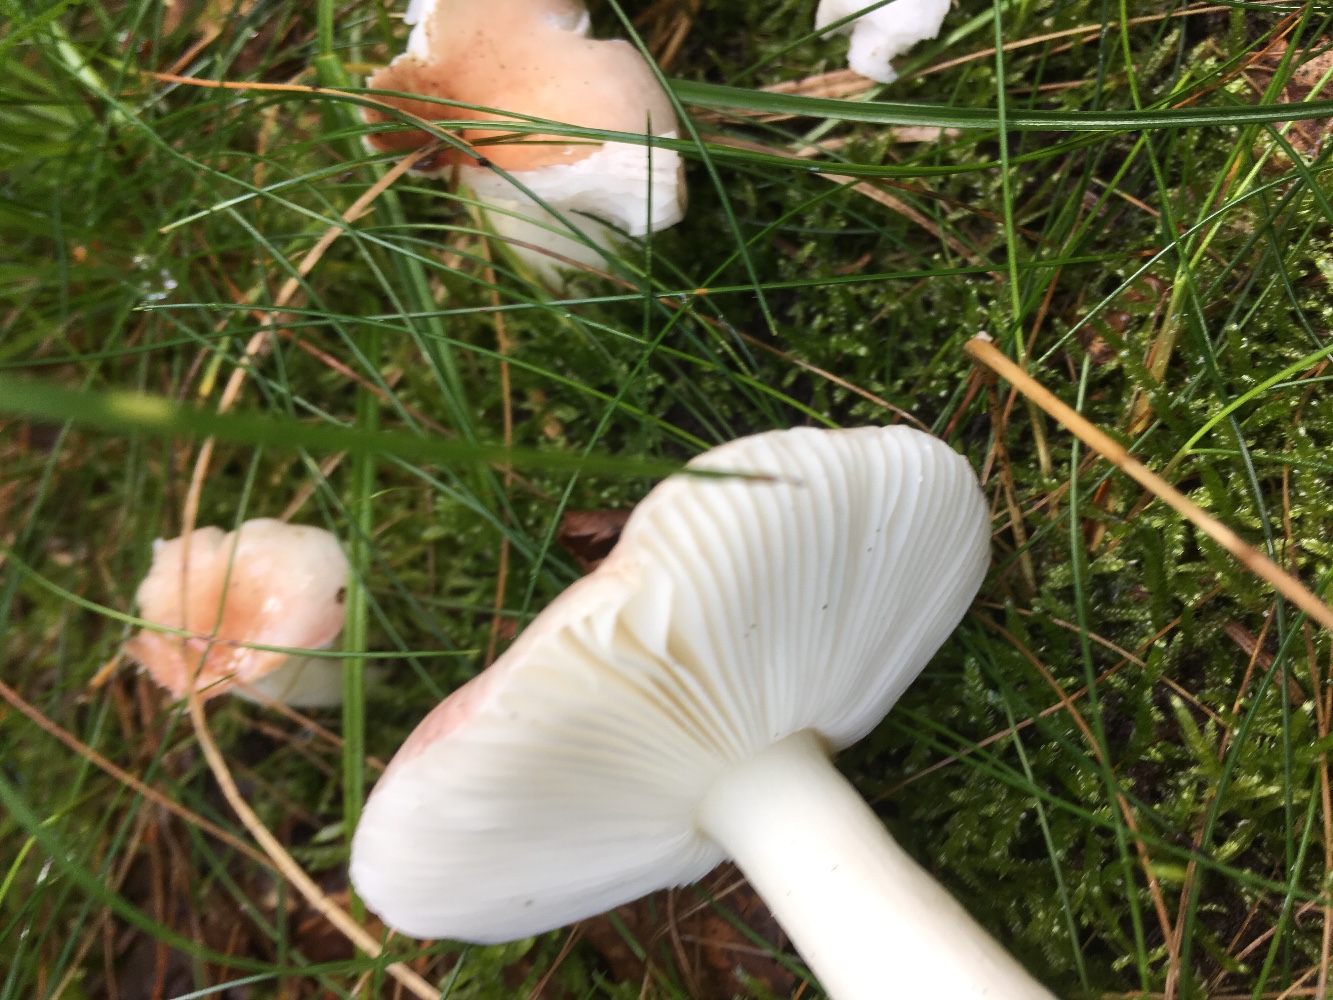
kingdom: Fungi
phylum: Basidiomycota
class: Agaricomycetes
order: Russulales
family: Russulaceae
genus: Russula
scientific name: Russula betularum
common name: bleg gift-skørhat
